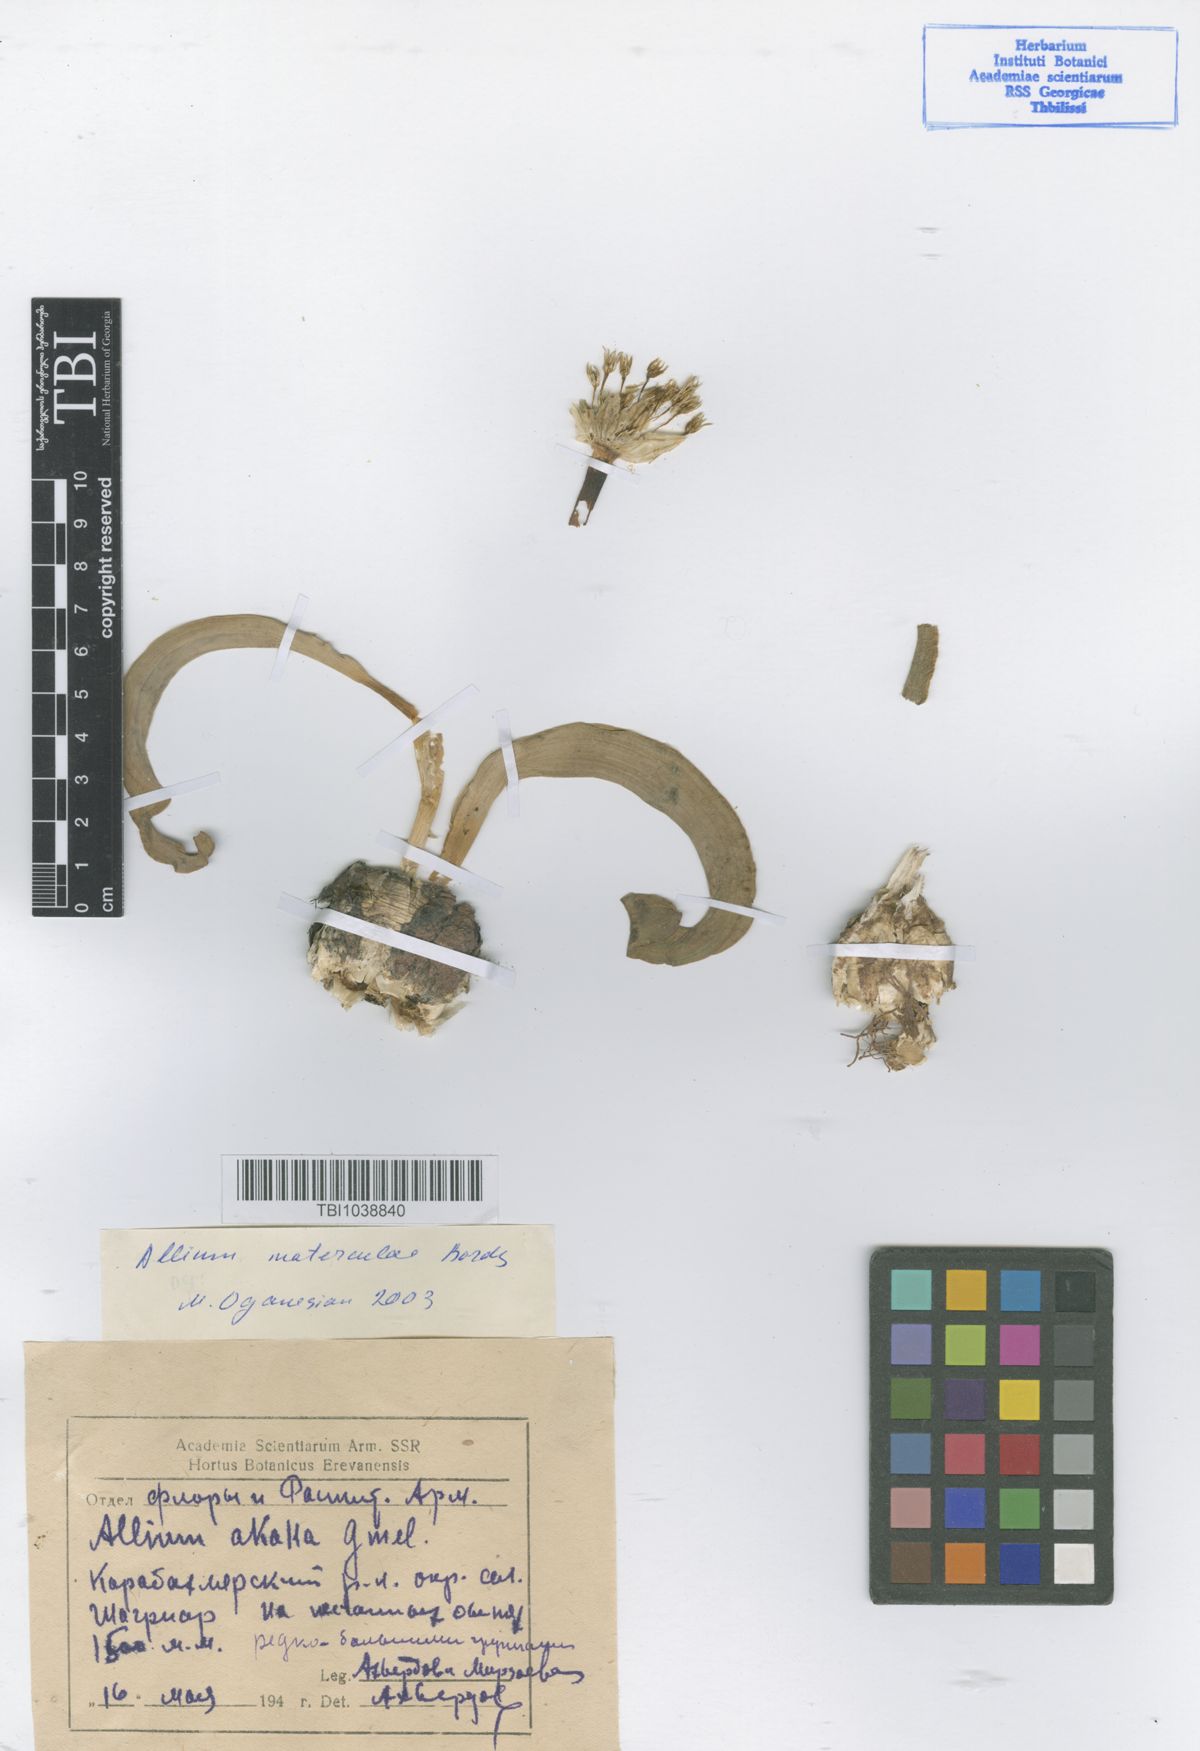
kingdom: Plantae
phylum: Tracheophyta
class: Liliopsida
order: Asparagales
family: Amaryllidaceae
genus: Allium
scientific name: Allium materculae
